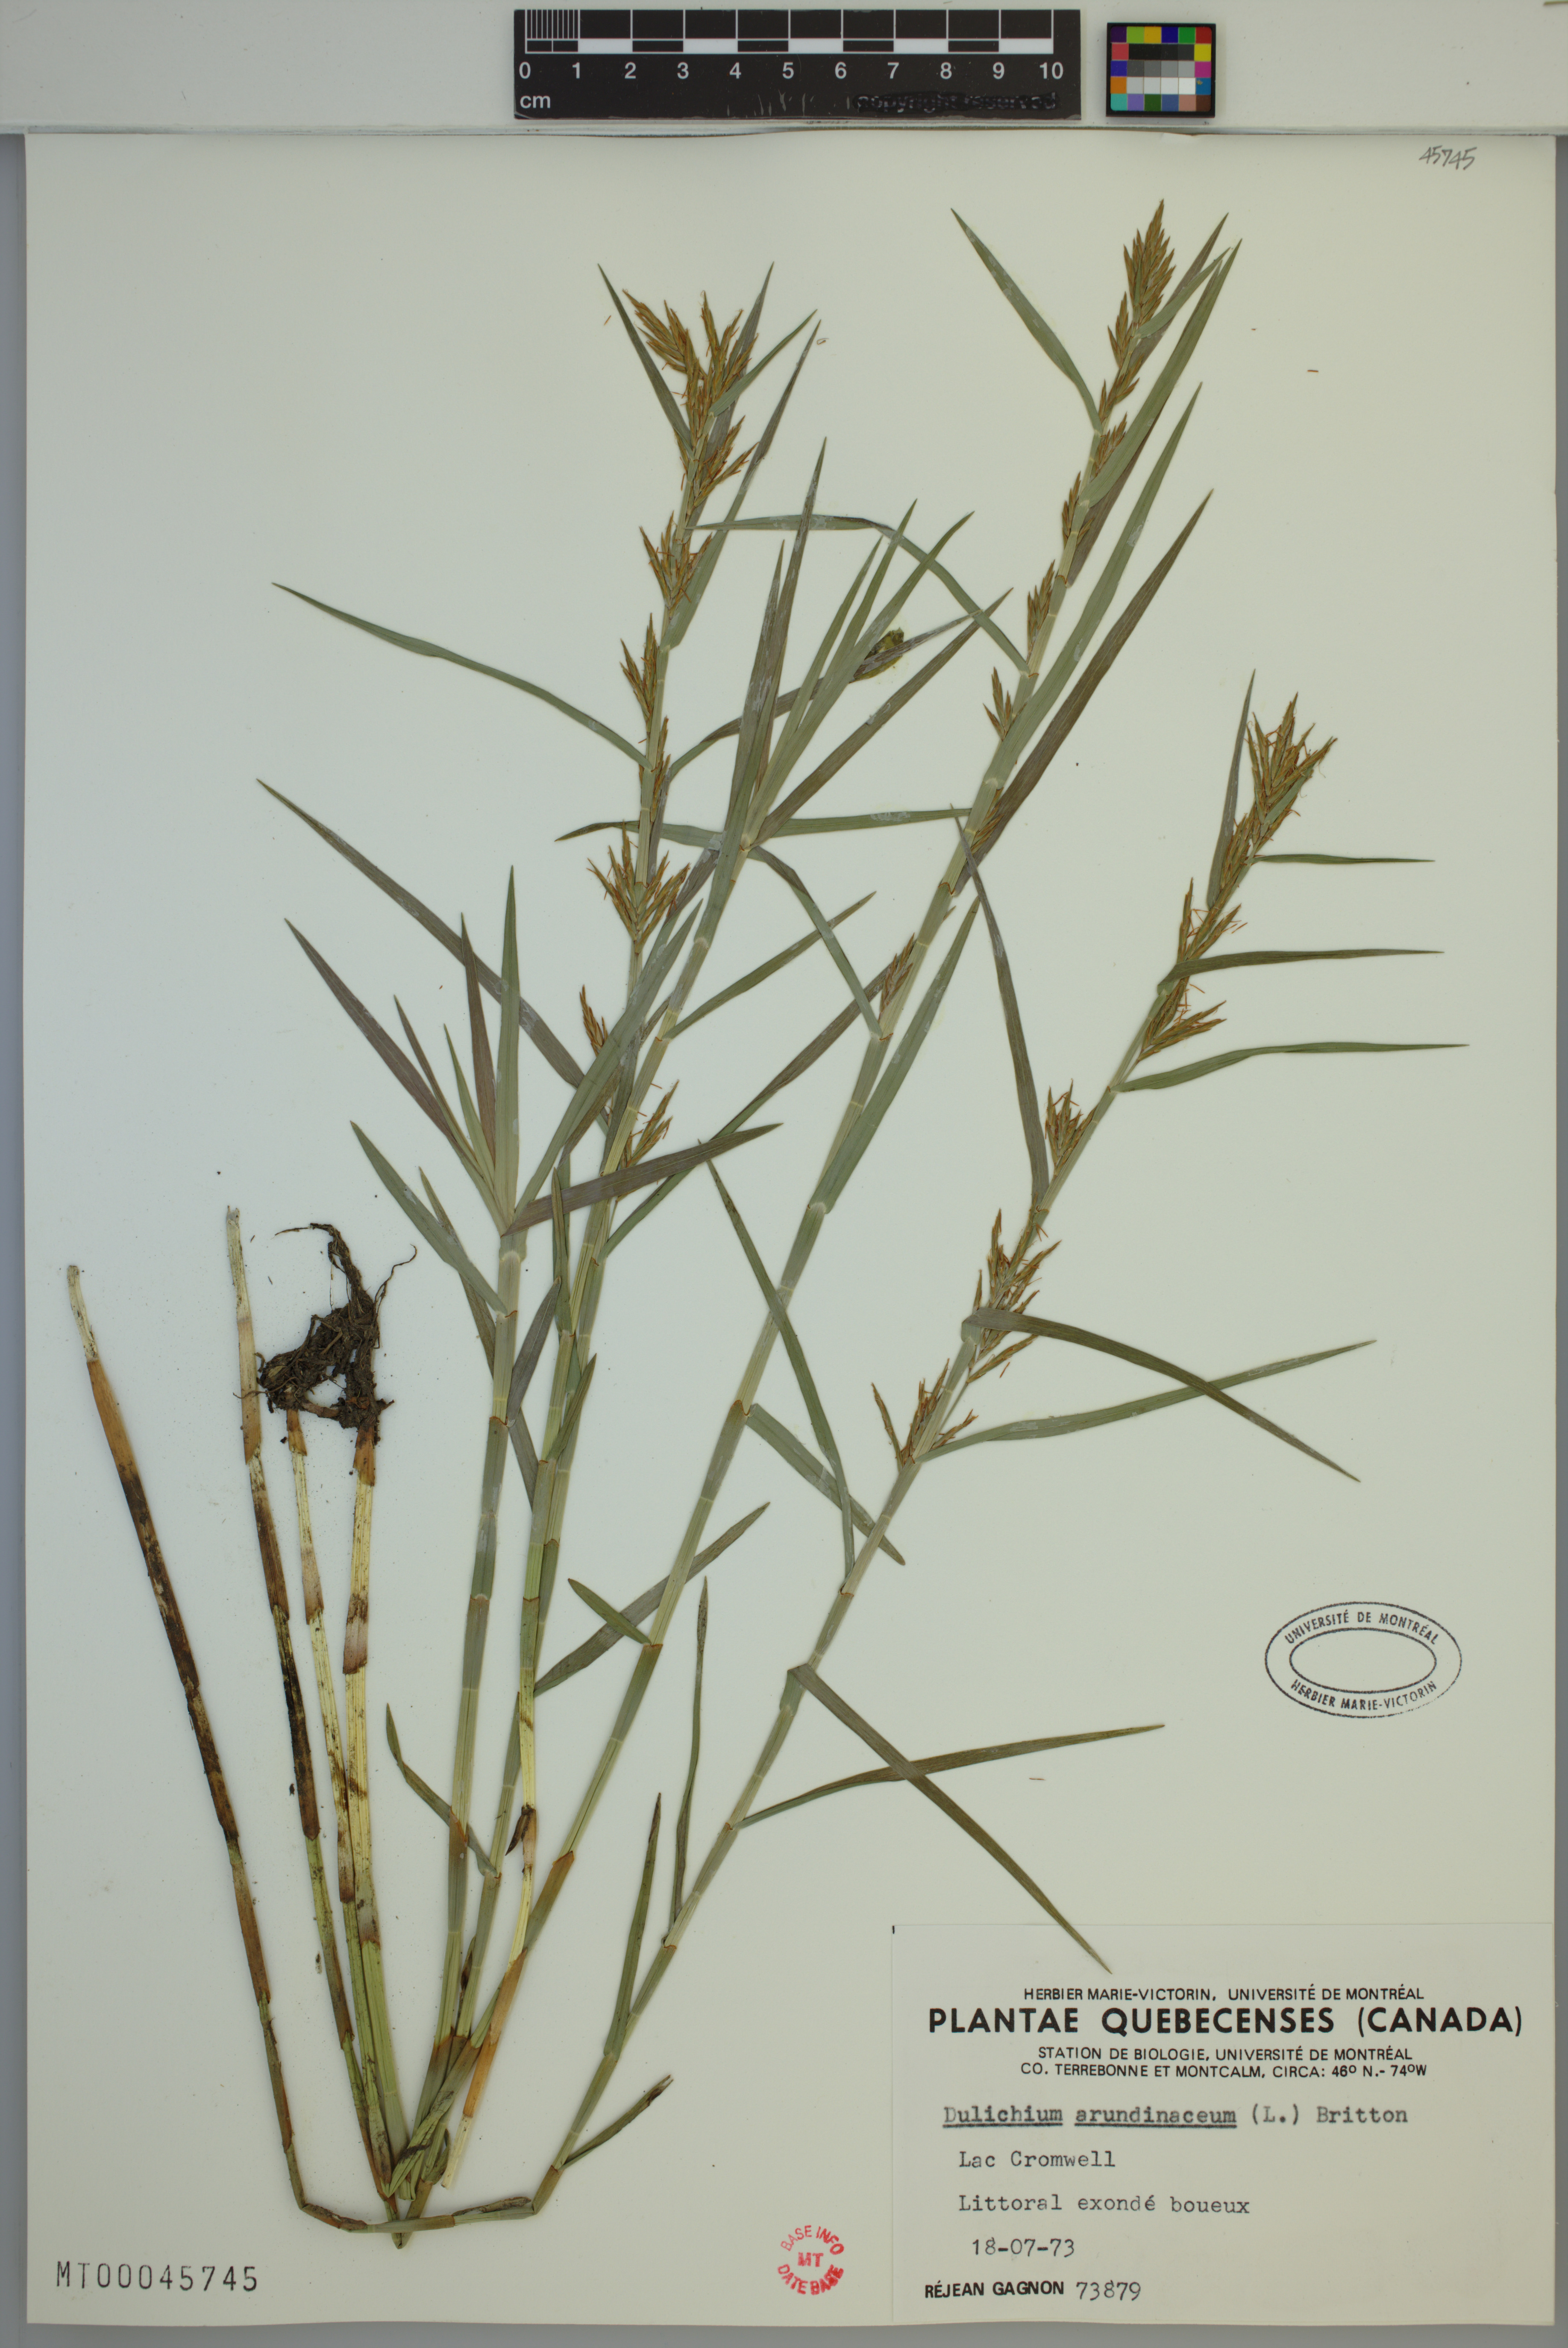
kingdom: Plantae
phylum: Tracheophyta
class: Liliopsida
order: Poales
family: Cyperaceae
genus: Dulichium
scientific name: Dulichium arundinaceum
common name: Three-way sedge
